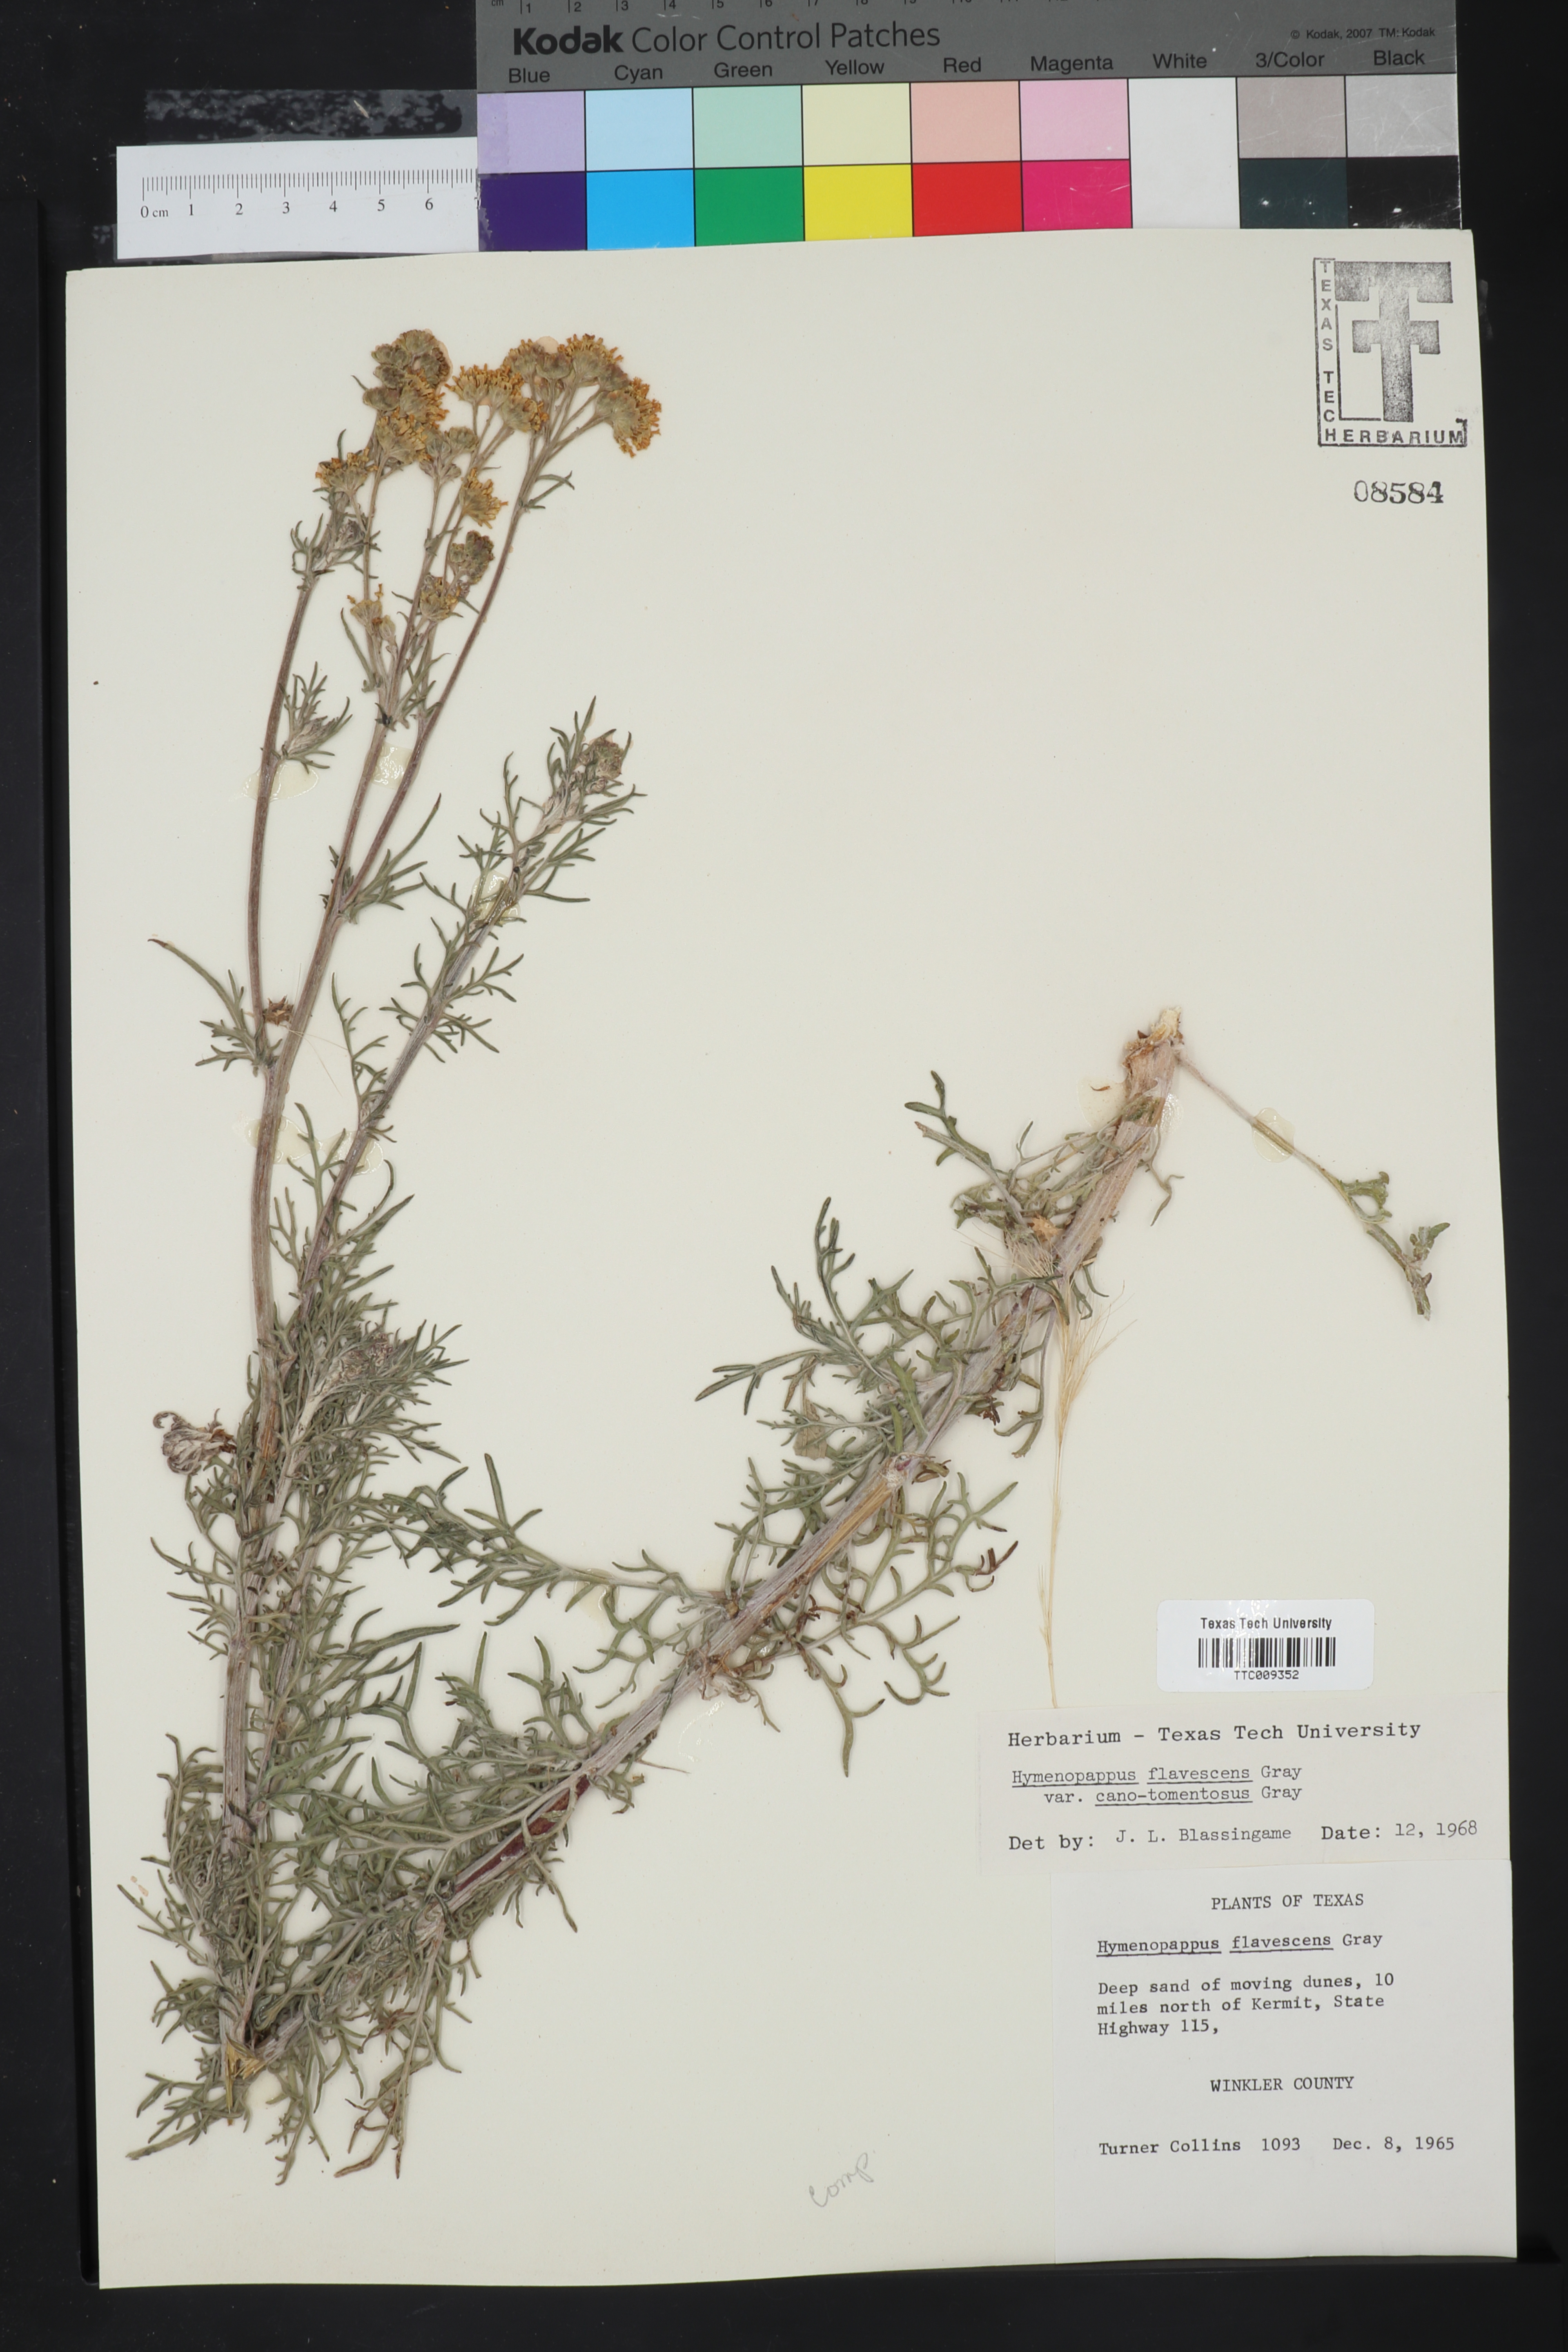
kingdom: Plantae
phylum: Tracheophyta
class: Magnoliopsida
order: Asterales
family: Asteraceae
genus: Hymenopappus
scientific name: Hymenopappus flavescens
